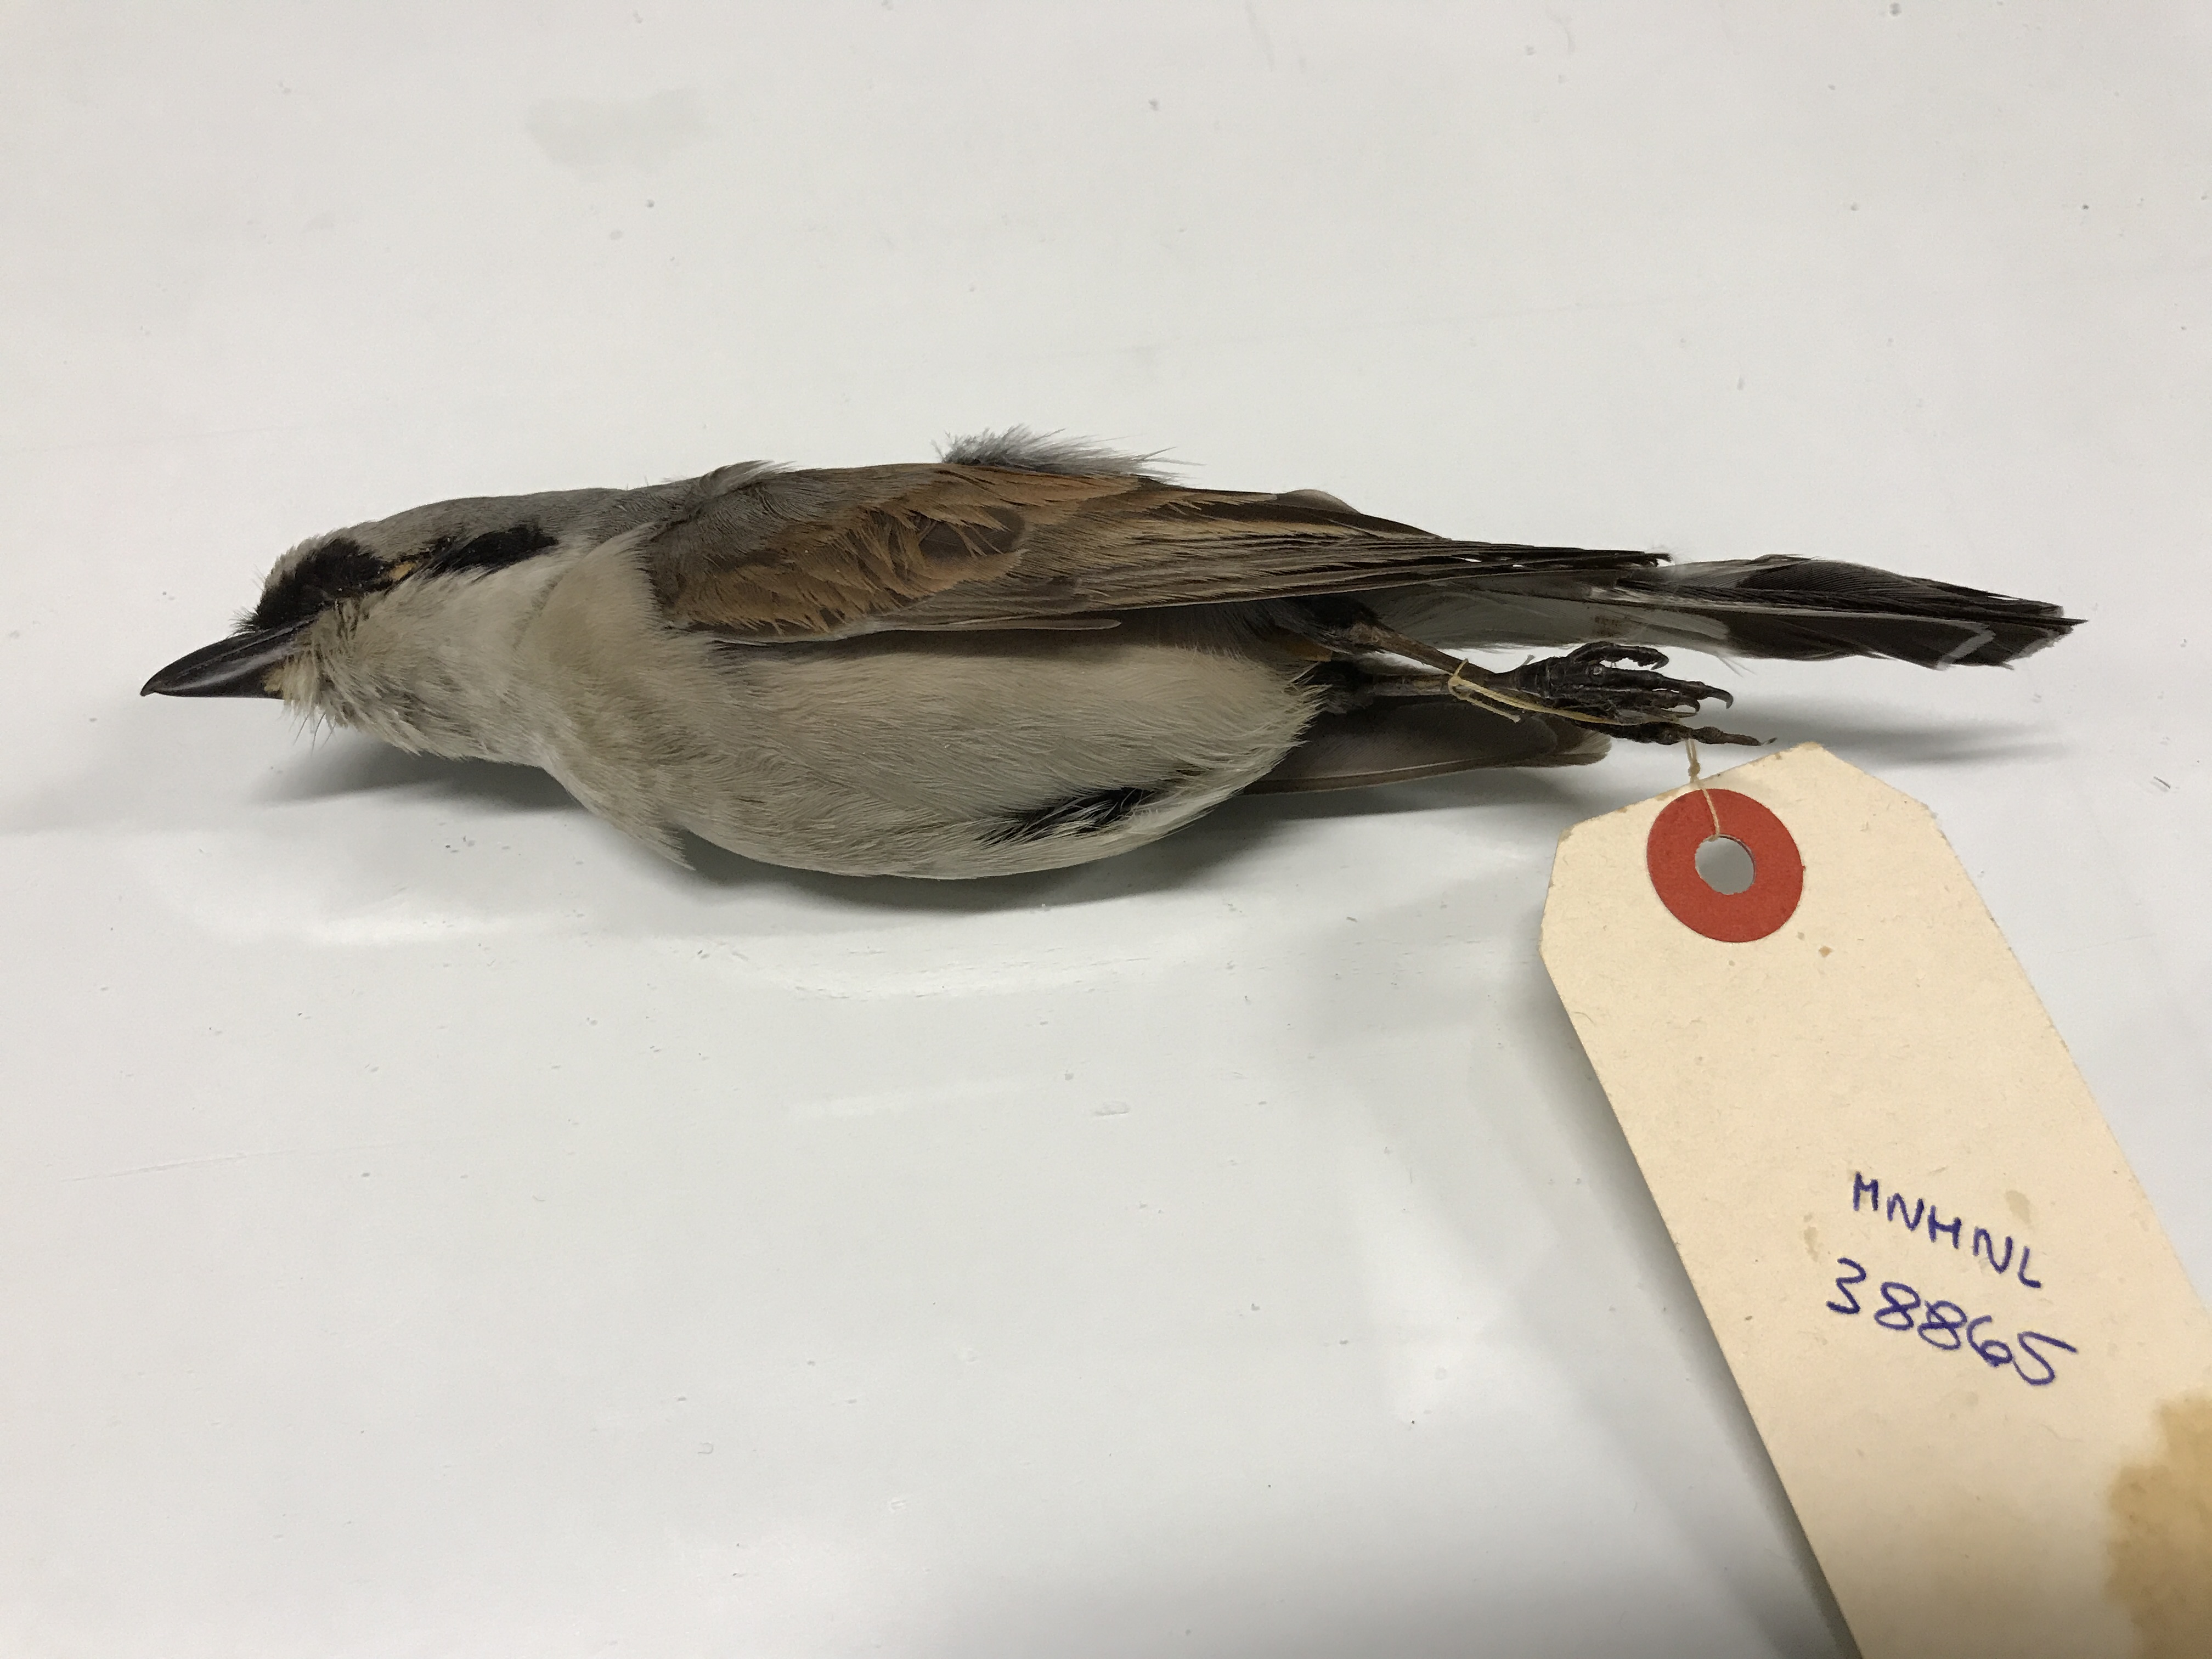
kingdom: Animalia
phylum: Chordata
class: Aves
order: Passeriformes
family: Laniidae
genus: Lanius
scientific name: Lanius collurio
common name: Red-backed shrike
